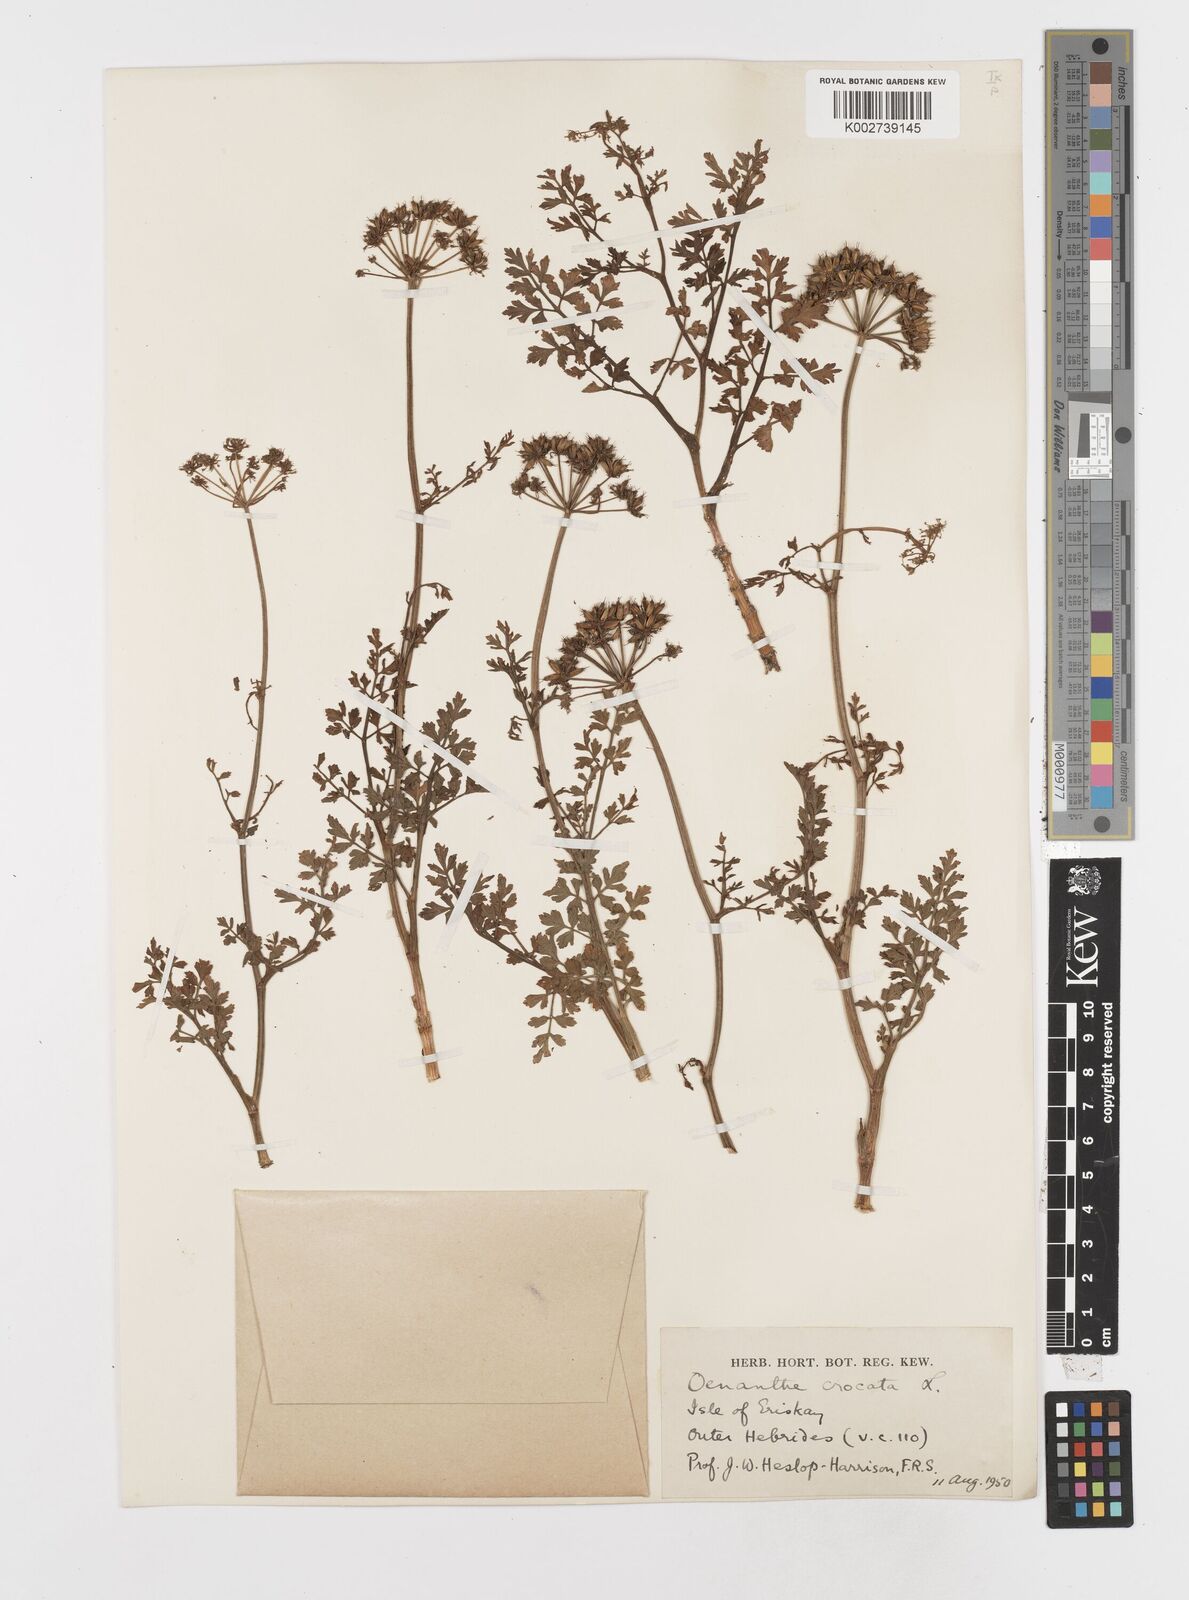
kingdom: Plantae
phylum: Tracheophyta
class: Magnoliopsida
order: Apiales
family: Apiaceae
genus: Oenanthe
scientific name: Oenanthe crocata
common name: Hemlock water-dropwort
